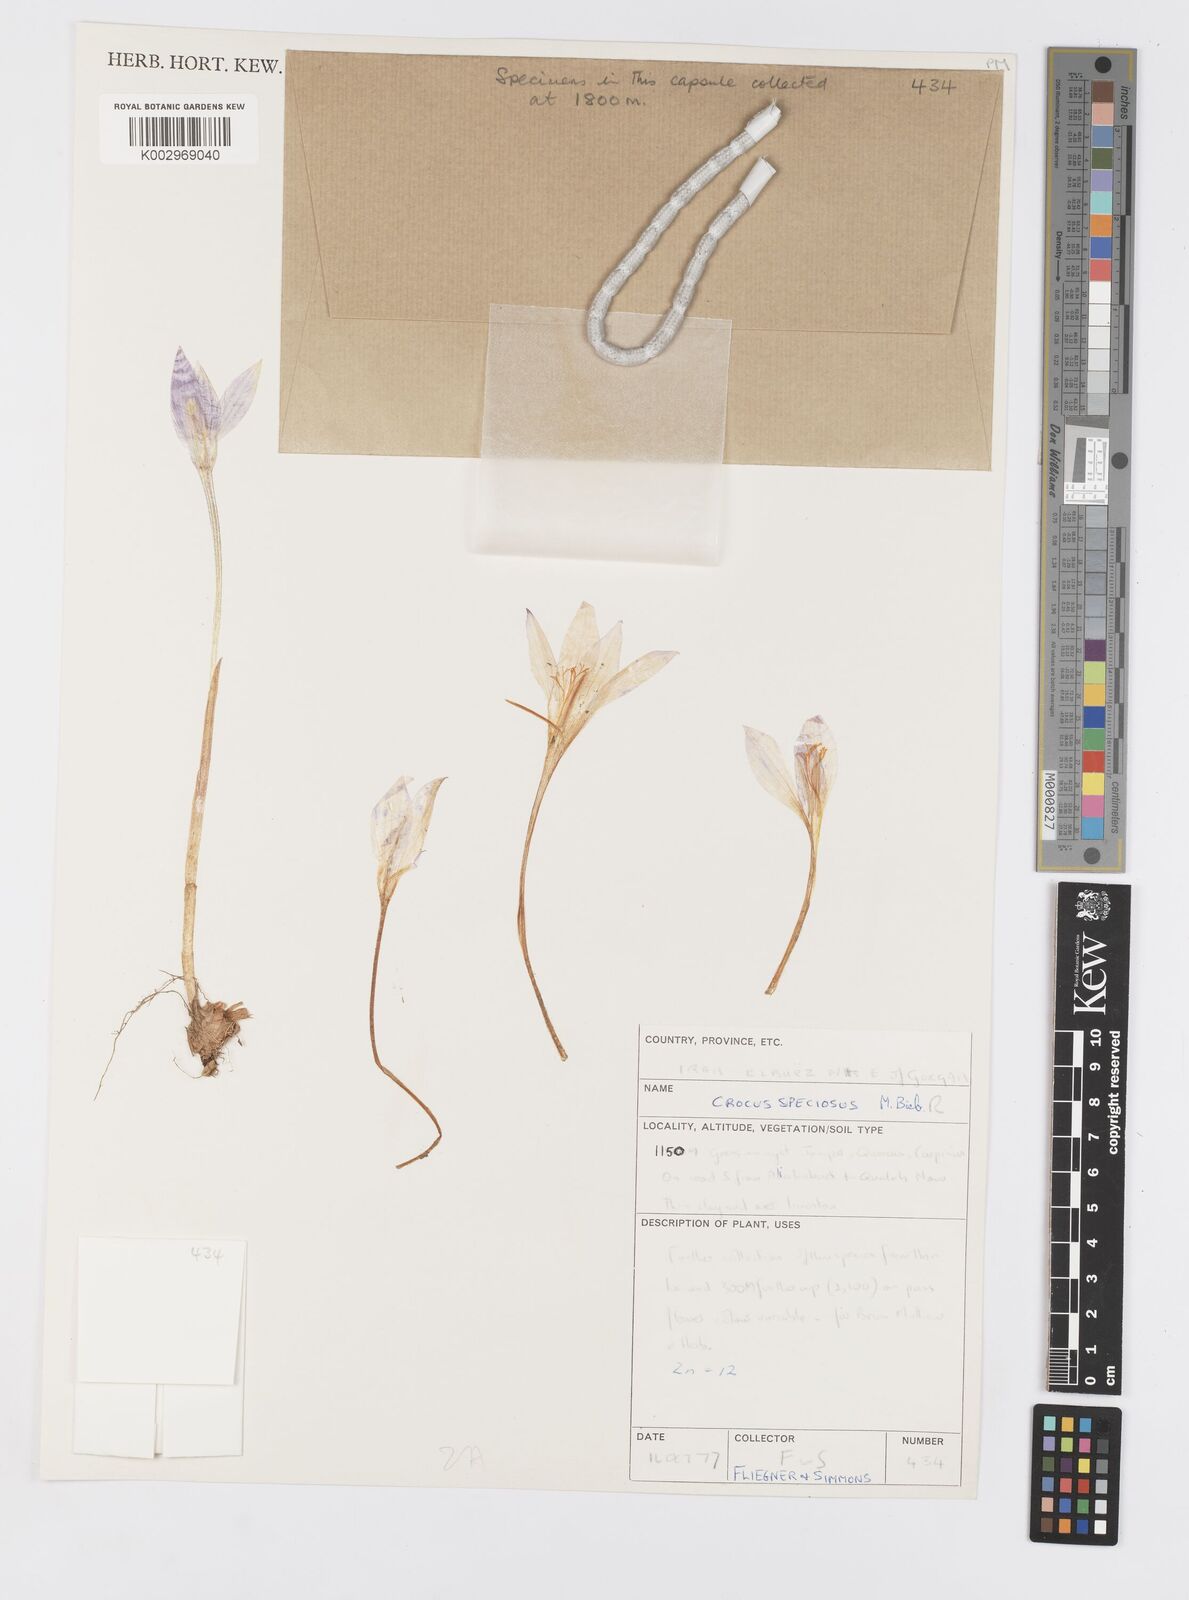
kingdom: Plantae
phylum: Tracheophyta
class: Liliopsida
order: Asparagales
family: Iridaceae
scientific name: Iridaceae
